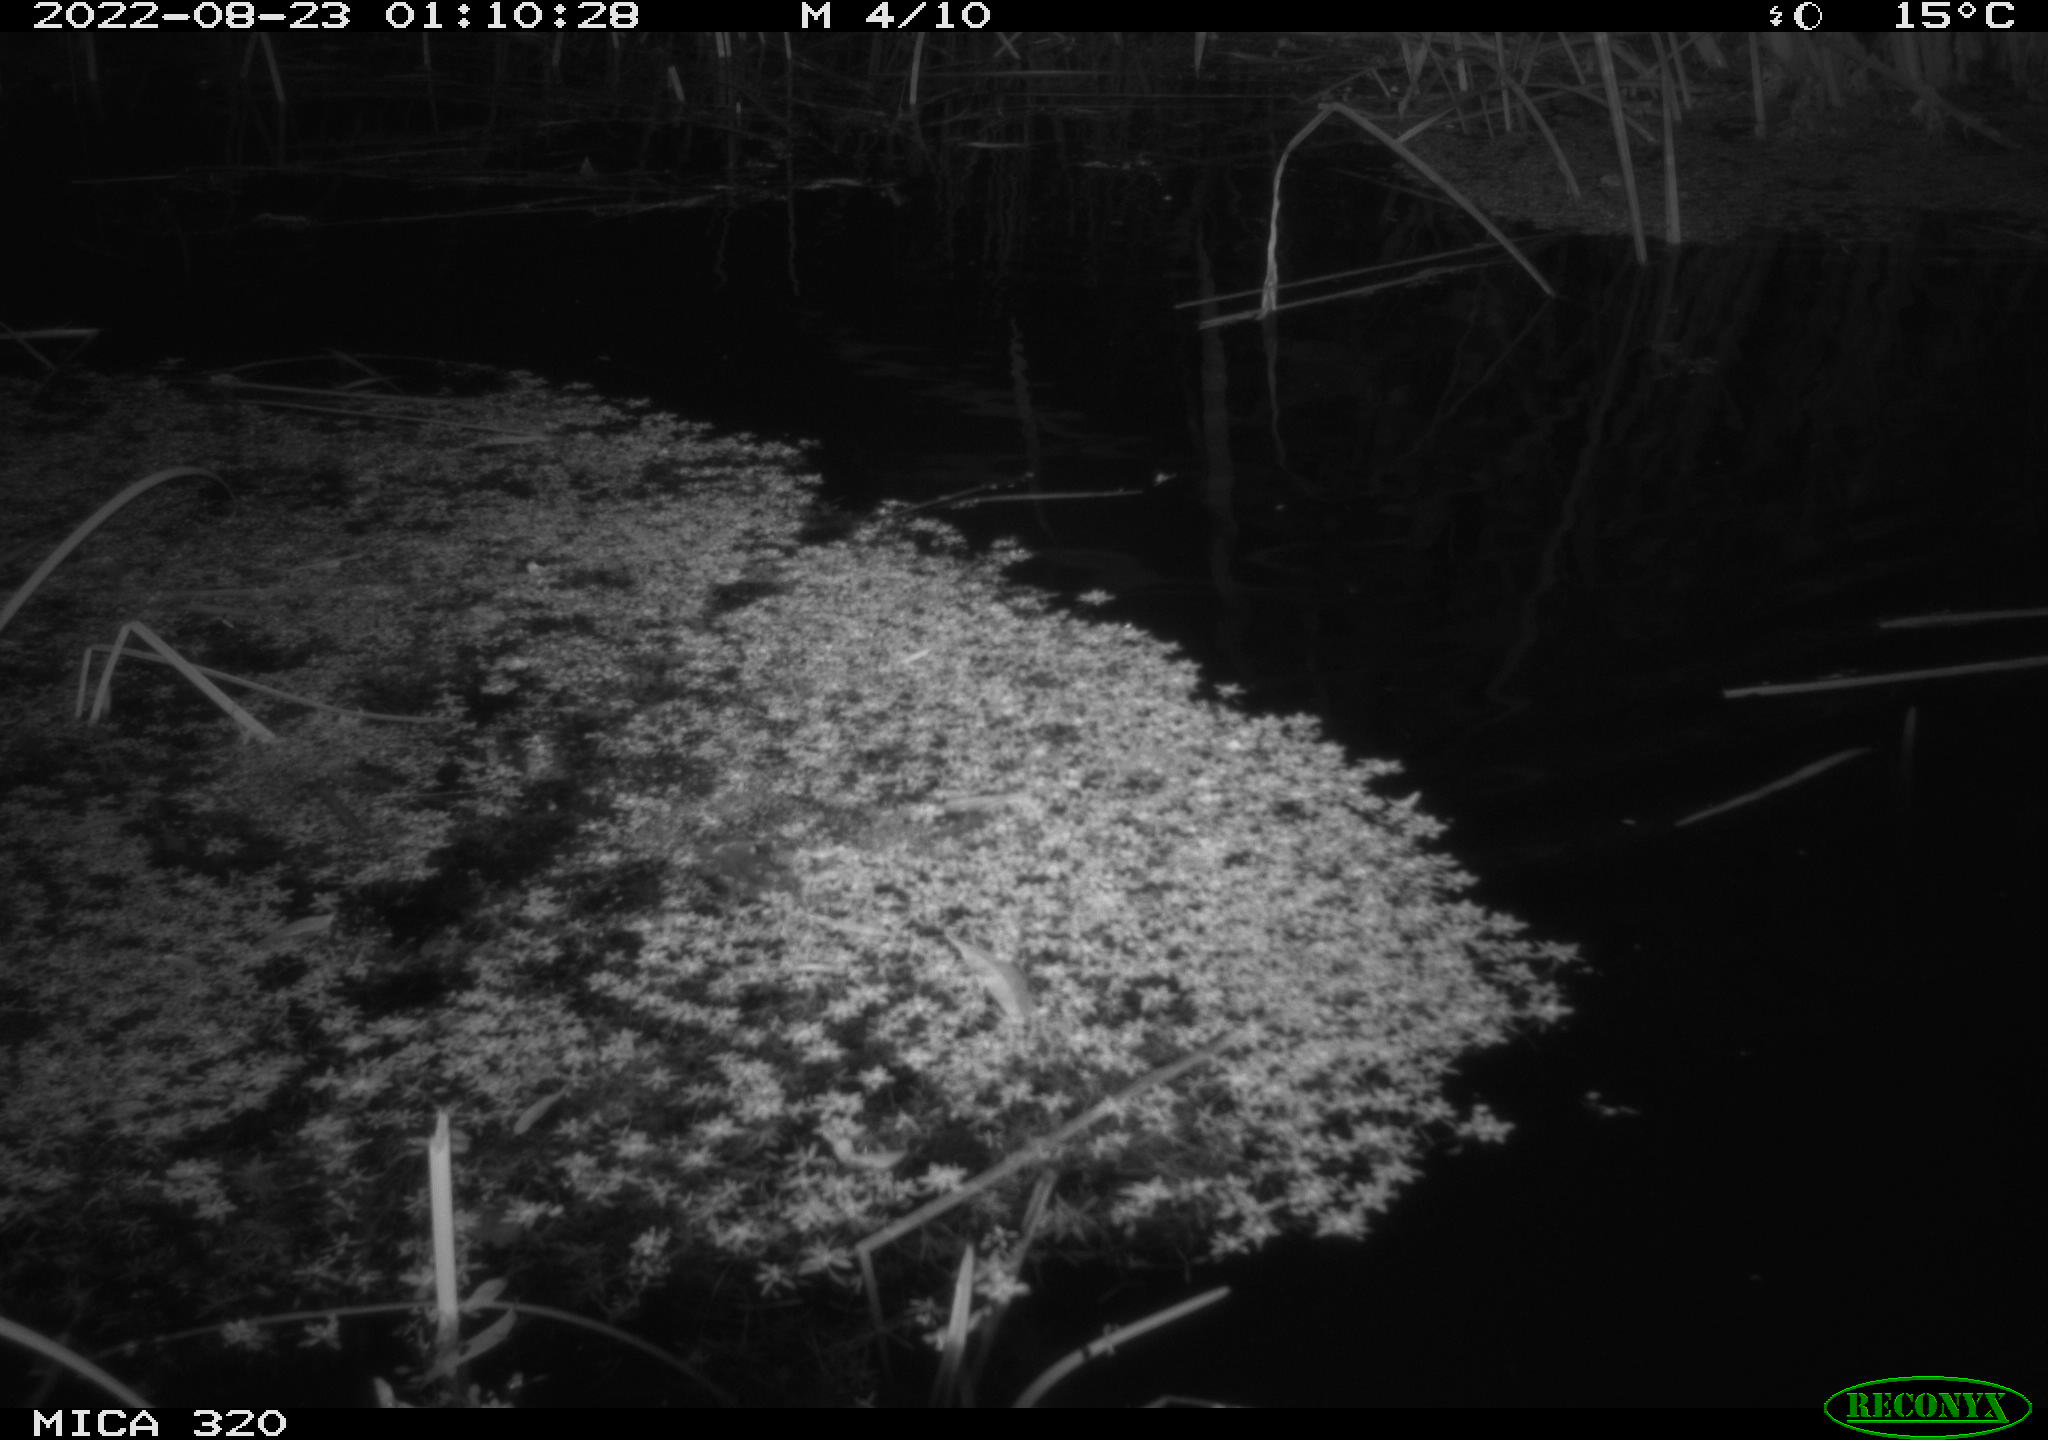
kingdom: Animalia
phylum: Chordata
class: Mammalia
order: Rodentia
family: Muridae
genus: Rattus
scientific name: Rattus norvegicus
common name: Brown rat
